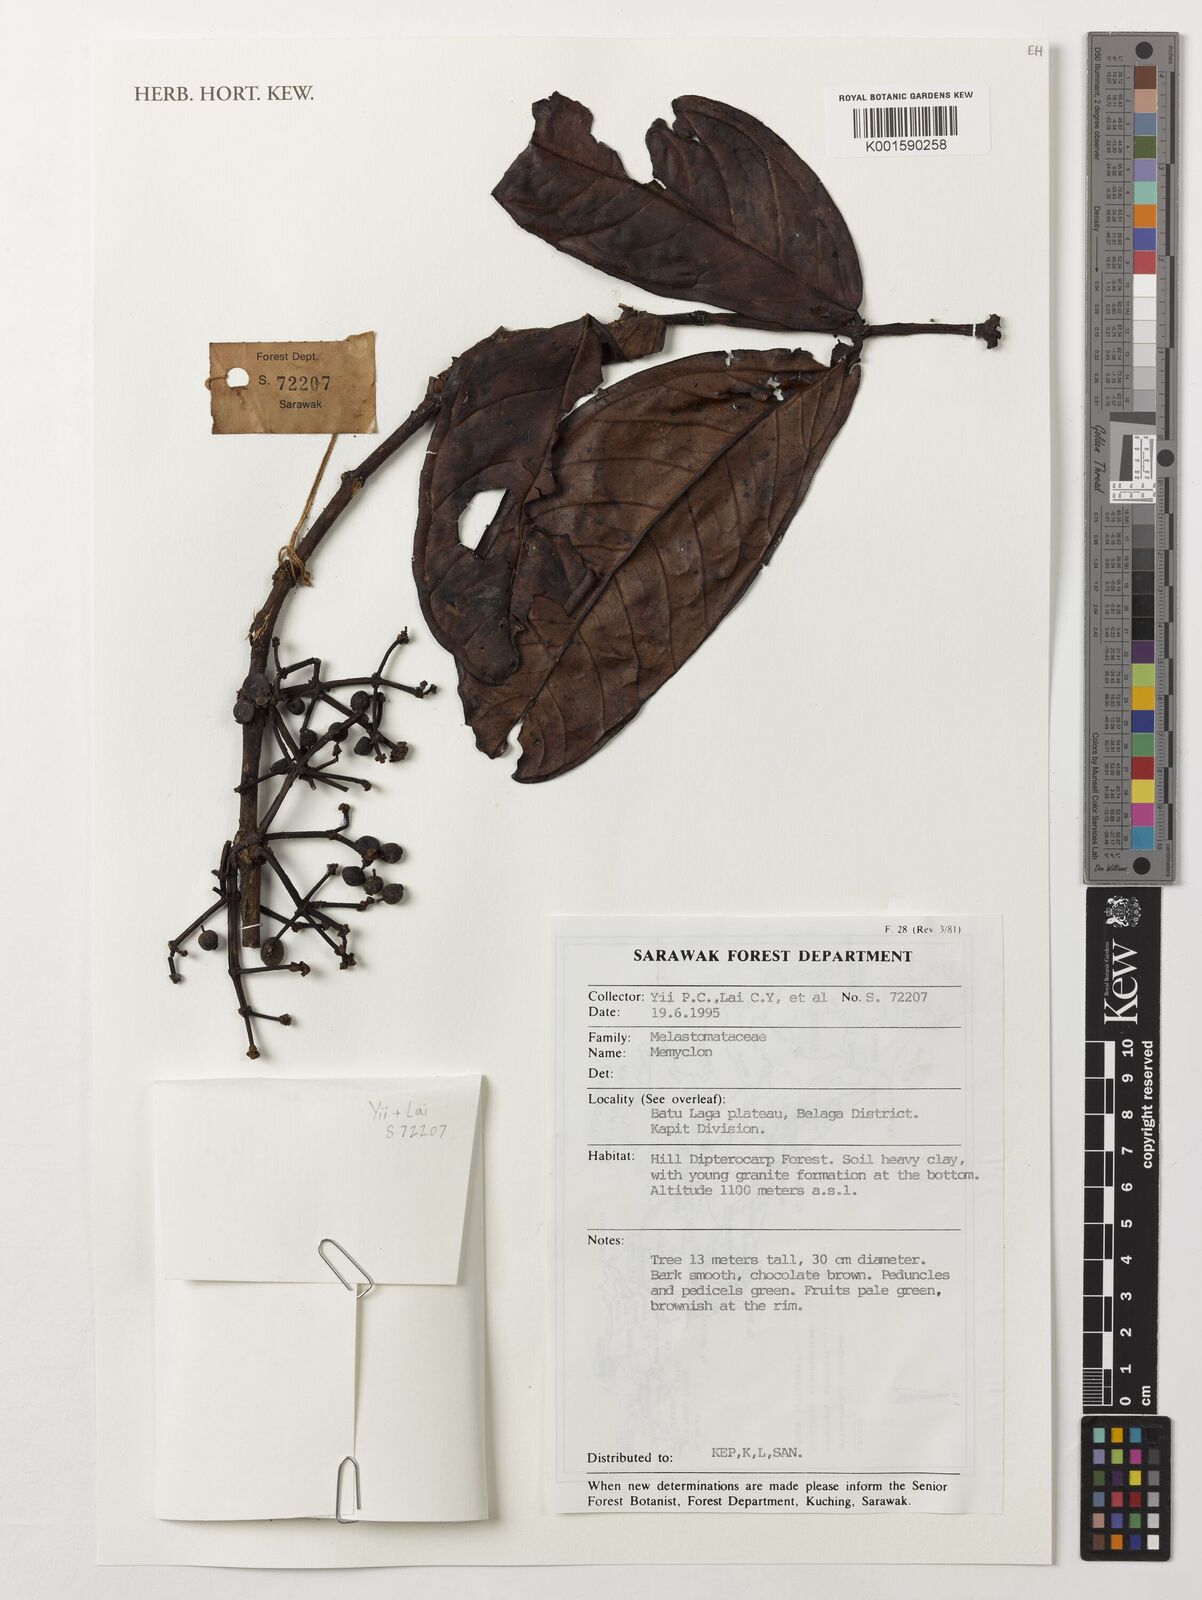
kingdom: Plantae
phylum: Tracheophyta
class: Magnoliopsida
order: Myrtales
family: Melastomataceae
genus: Memecylon
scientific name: Memecylon
